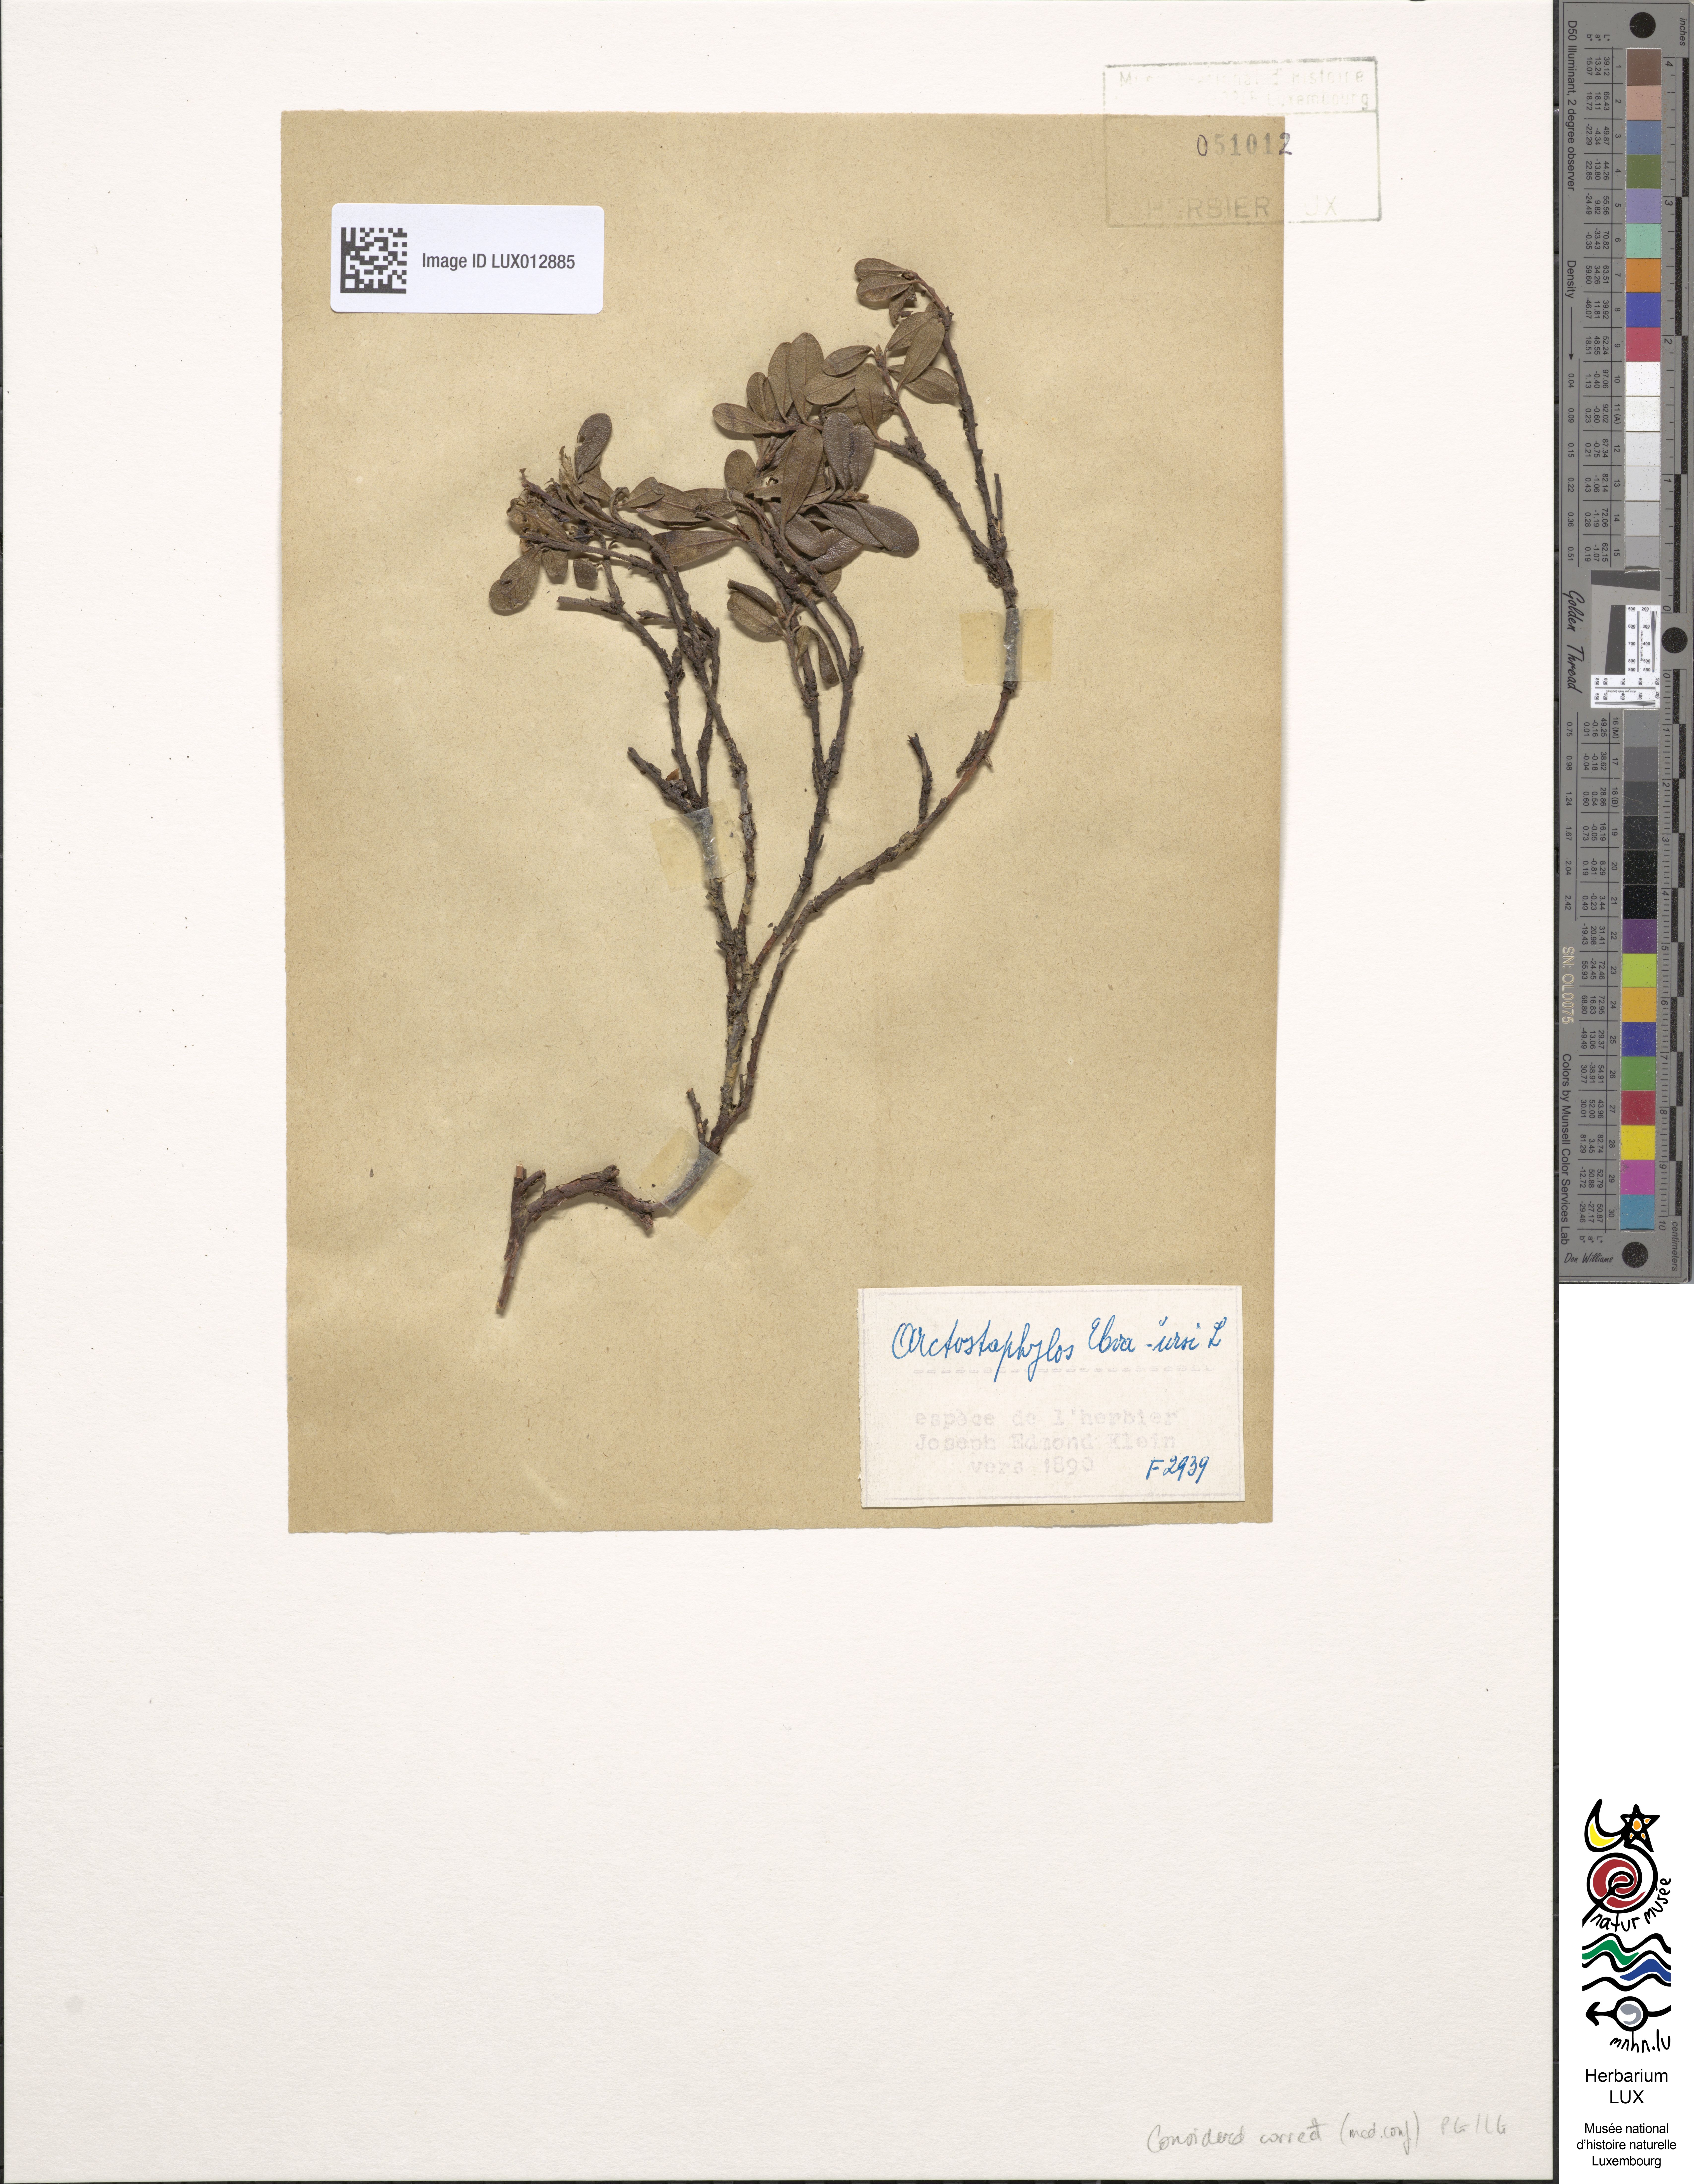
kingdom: Plantae
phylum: Tracheophyta
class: Magnoliopsida
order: Ericales
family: Ericaceae
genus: Arctostaphylos
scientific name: Arctostaphylos uva-ursi
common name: Bearberry
